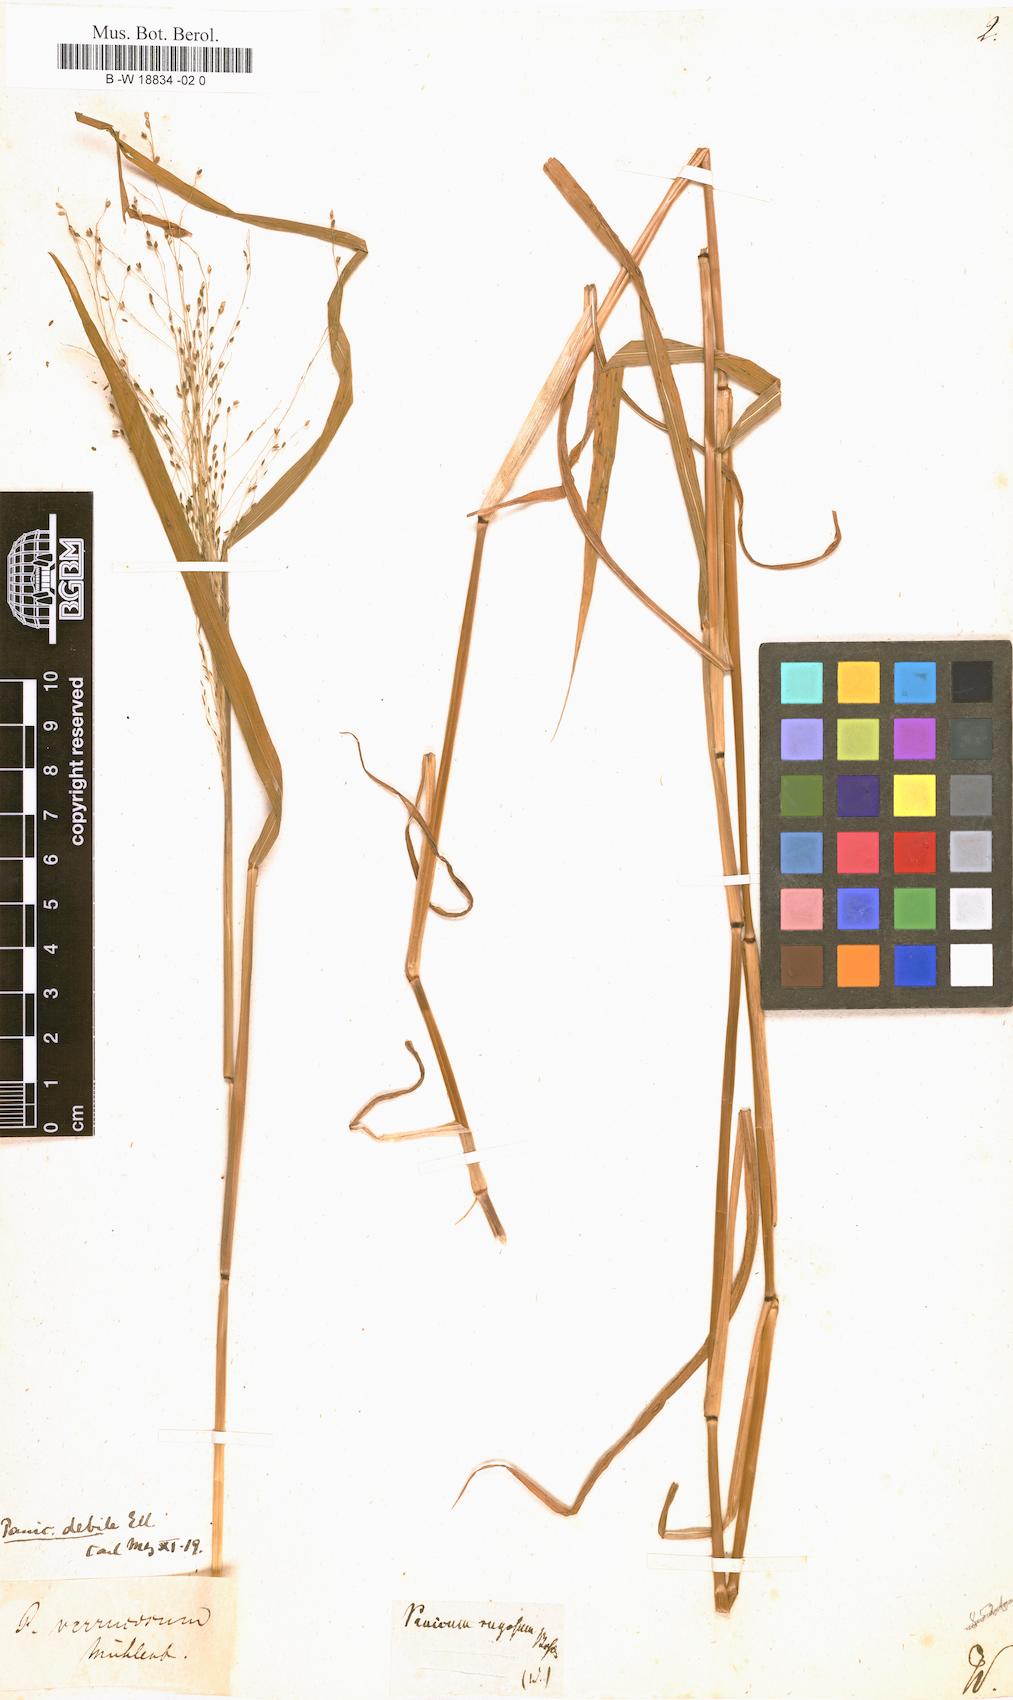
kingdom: Plantae
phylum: Tracheophyta
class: Liliopsida
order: Poales
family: Poaceae
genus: Kellochloa
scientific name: Kellochloa verrucosa
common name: Warty panic grass
